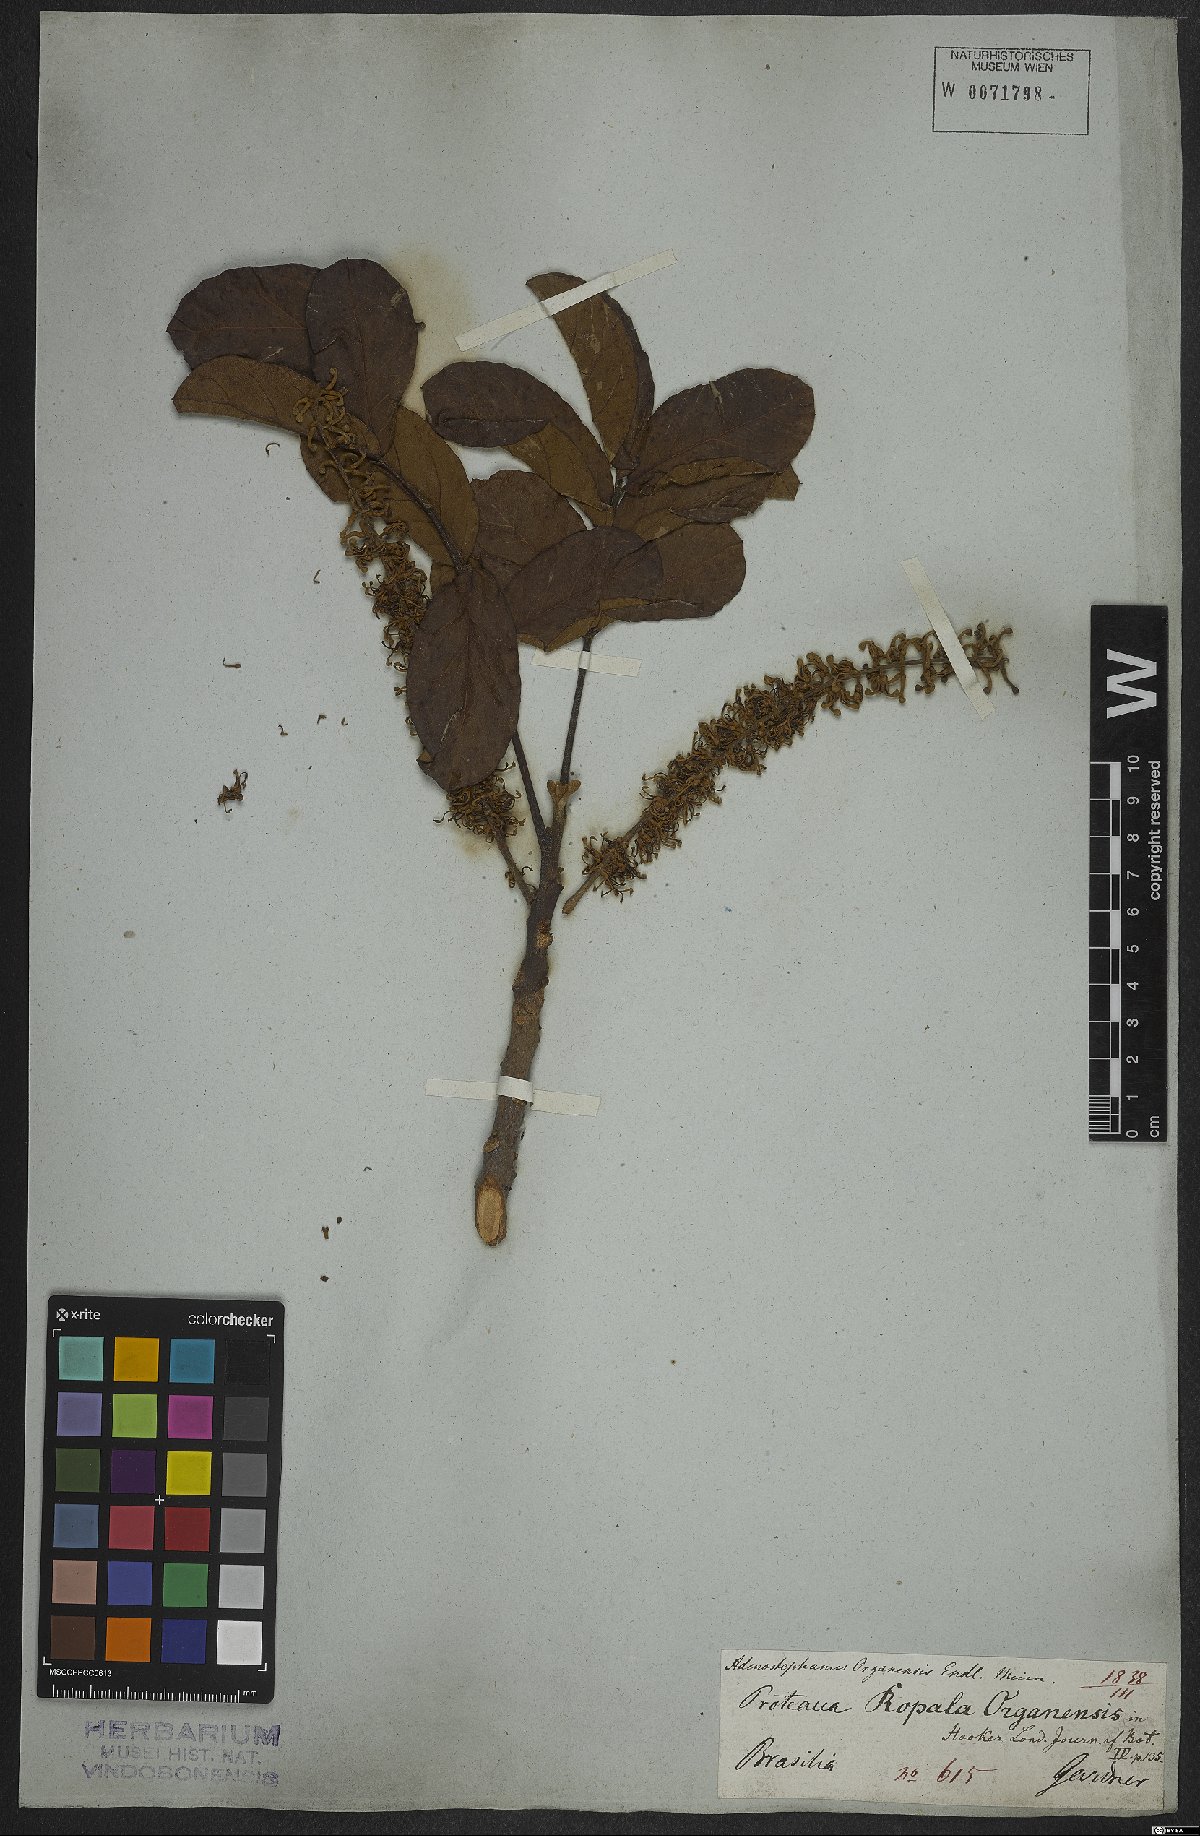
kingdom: Plantae
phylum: Tracheophyta
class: Magnoliopsida
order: Proteales
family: Proteaceae
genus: Euplassa
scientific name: Euplassa organensis
